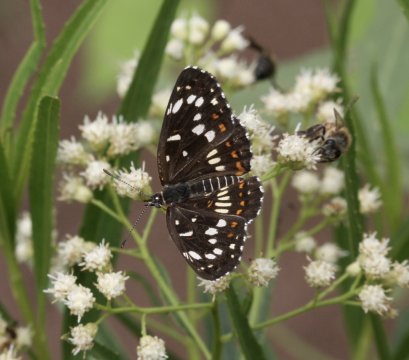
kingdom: Animalia
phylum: Arthropoda
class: Insecta
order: Lepidoptera
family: Nymphalidae
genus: Thessalia
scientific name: Thessalia theona
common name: Theona Checkerspot
